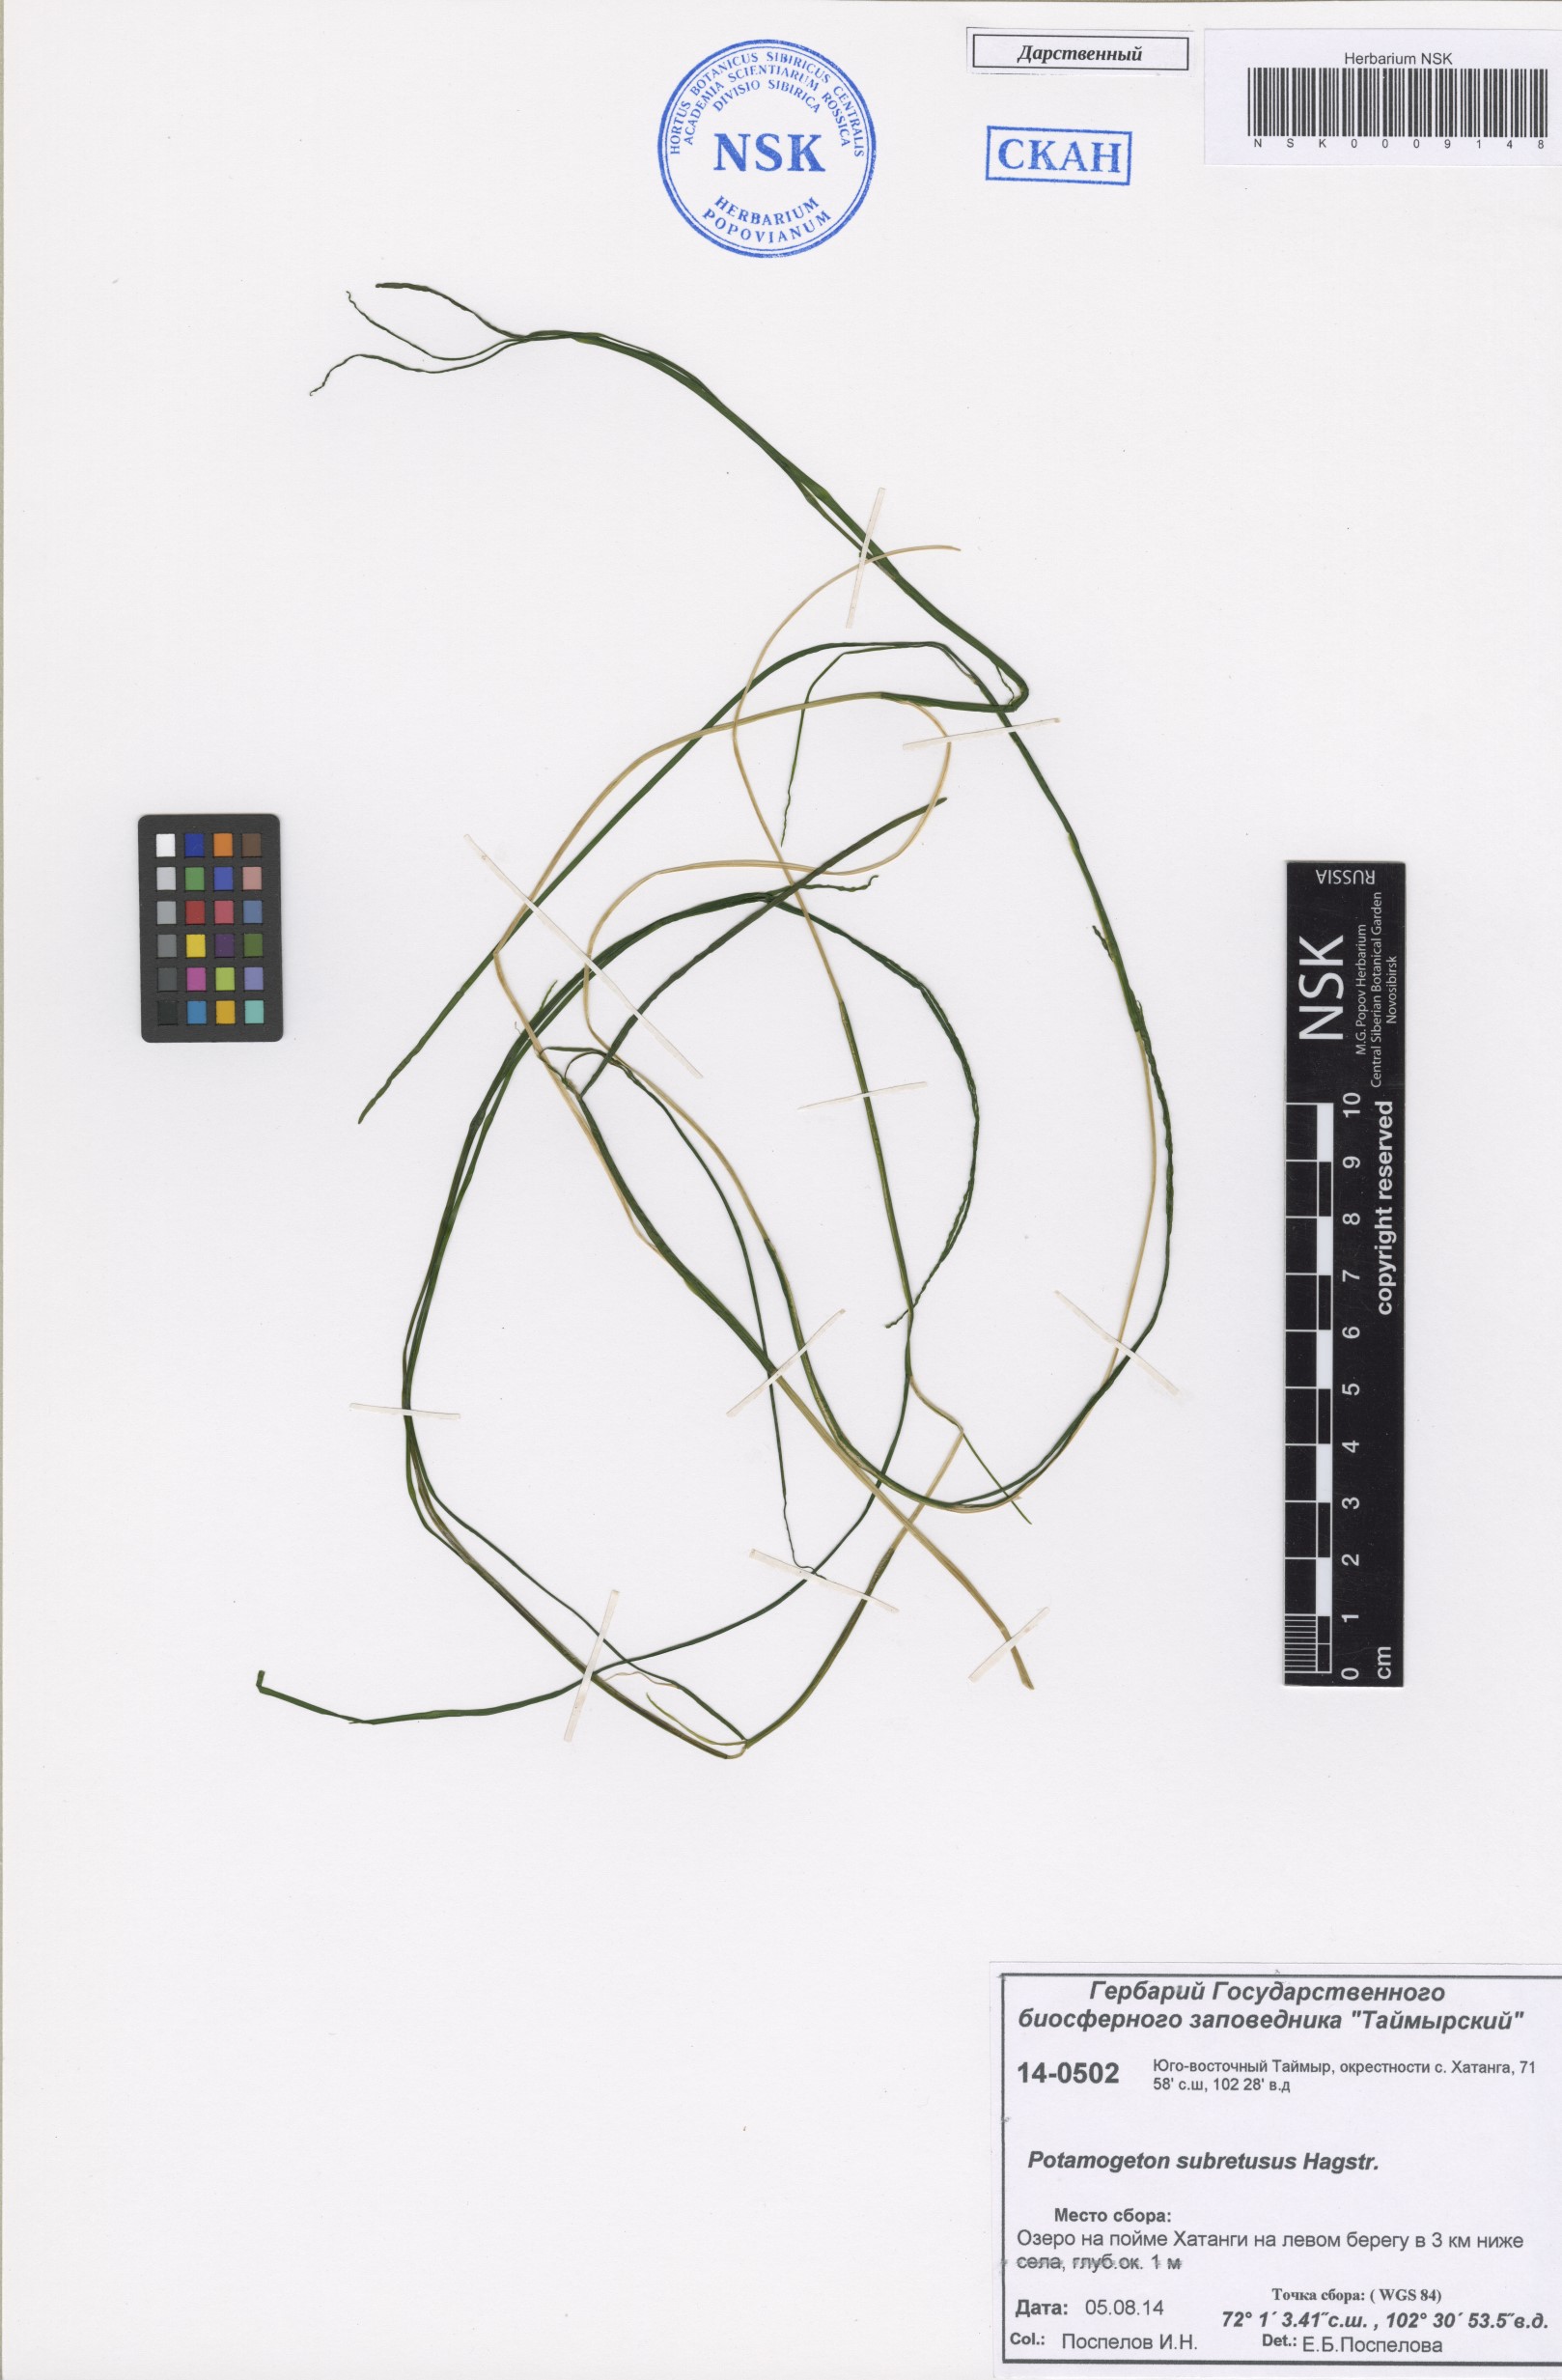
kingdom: Plantae
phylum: Tracheophyta
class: Liliopsida
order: Alismatales
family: Potamogetonaceae
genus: Stuckenia
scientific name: Stuckenia vaginata
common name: Big-sheathed pondweed
